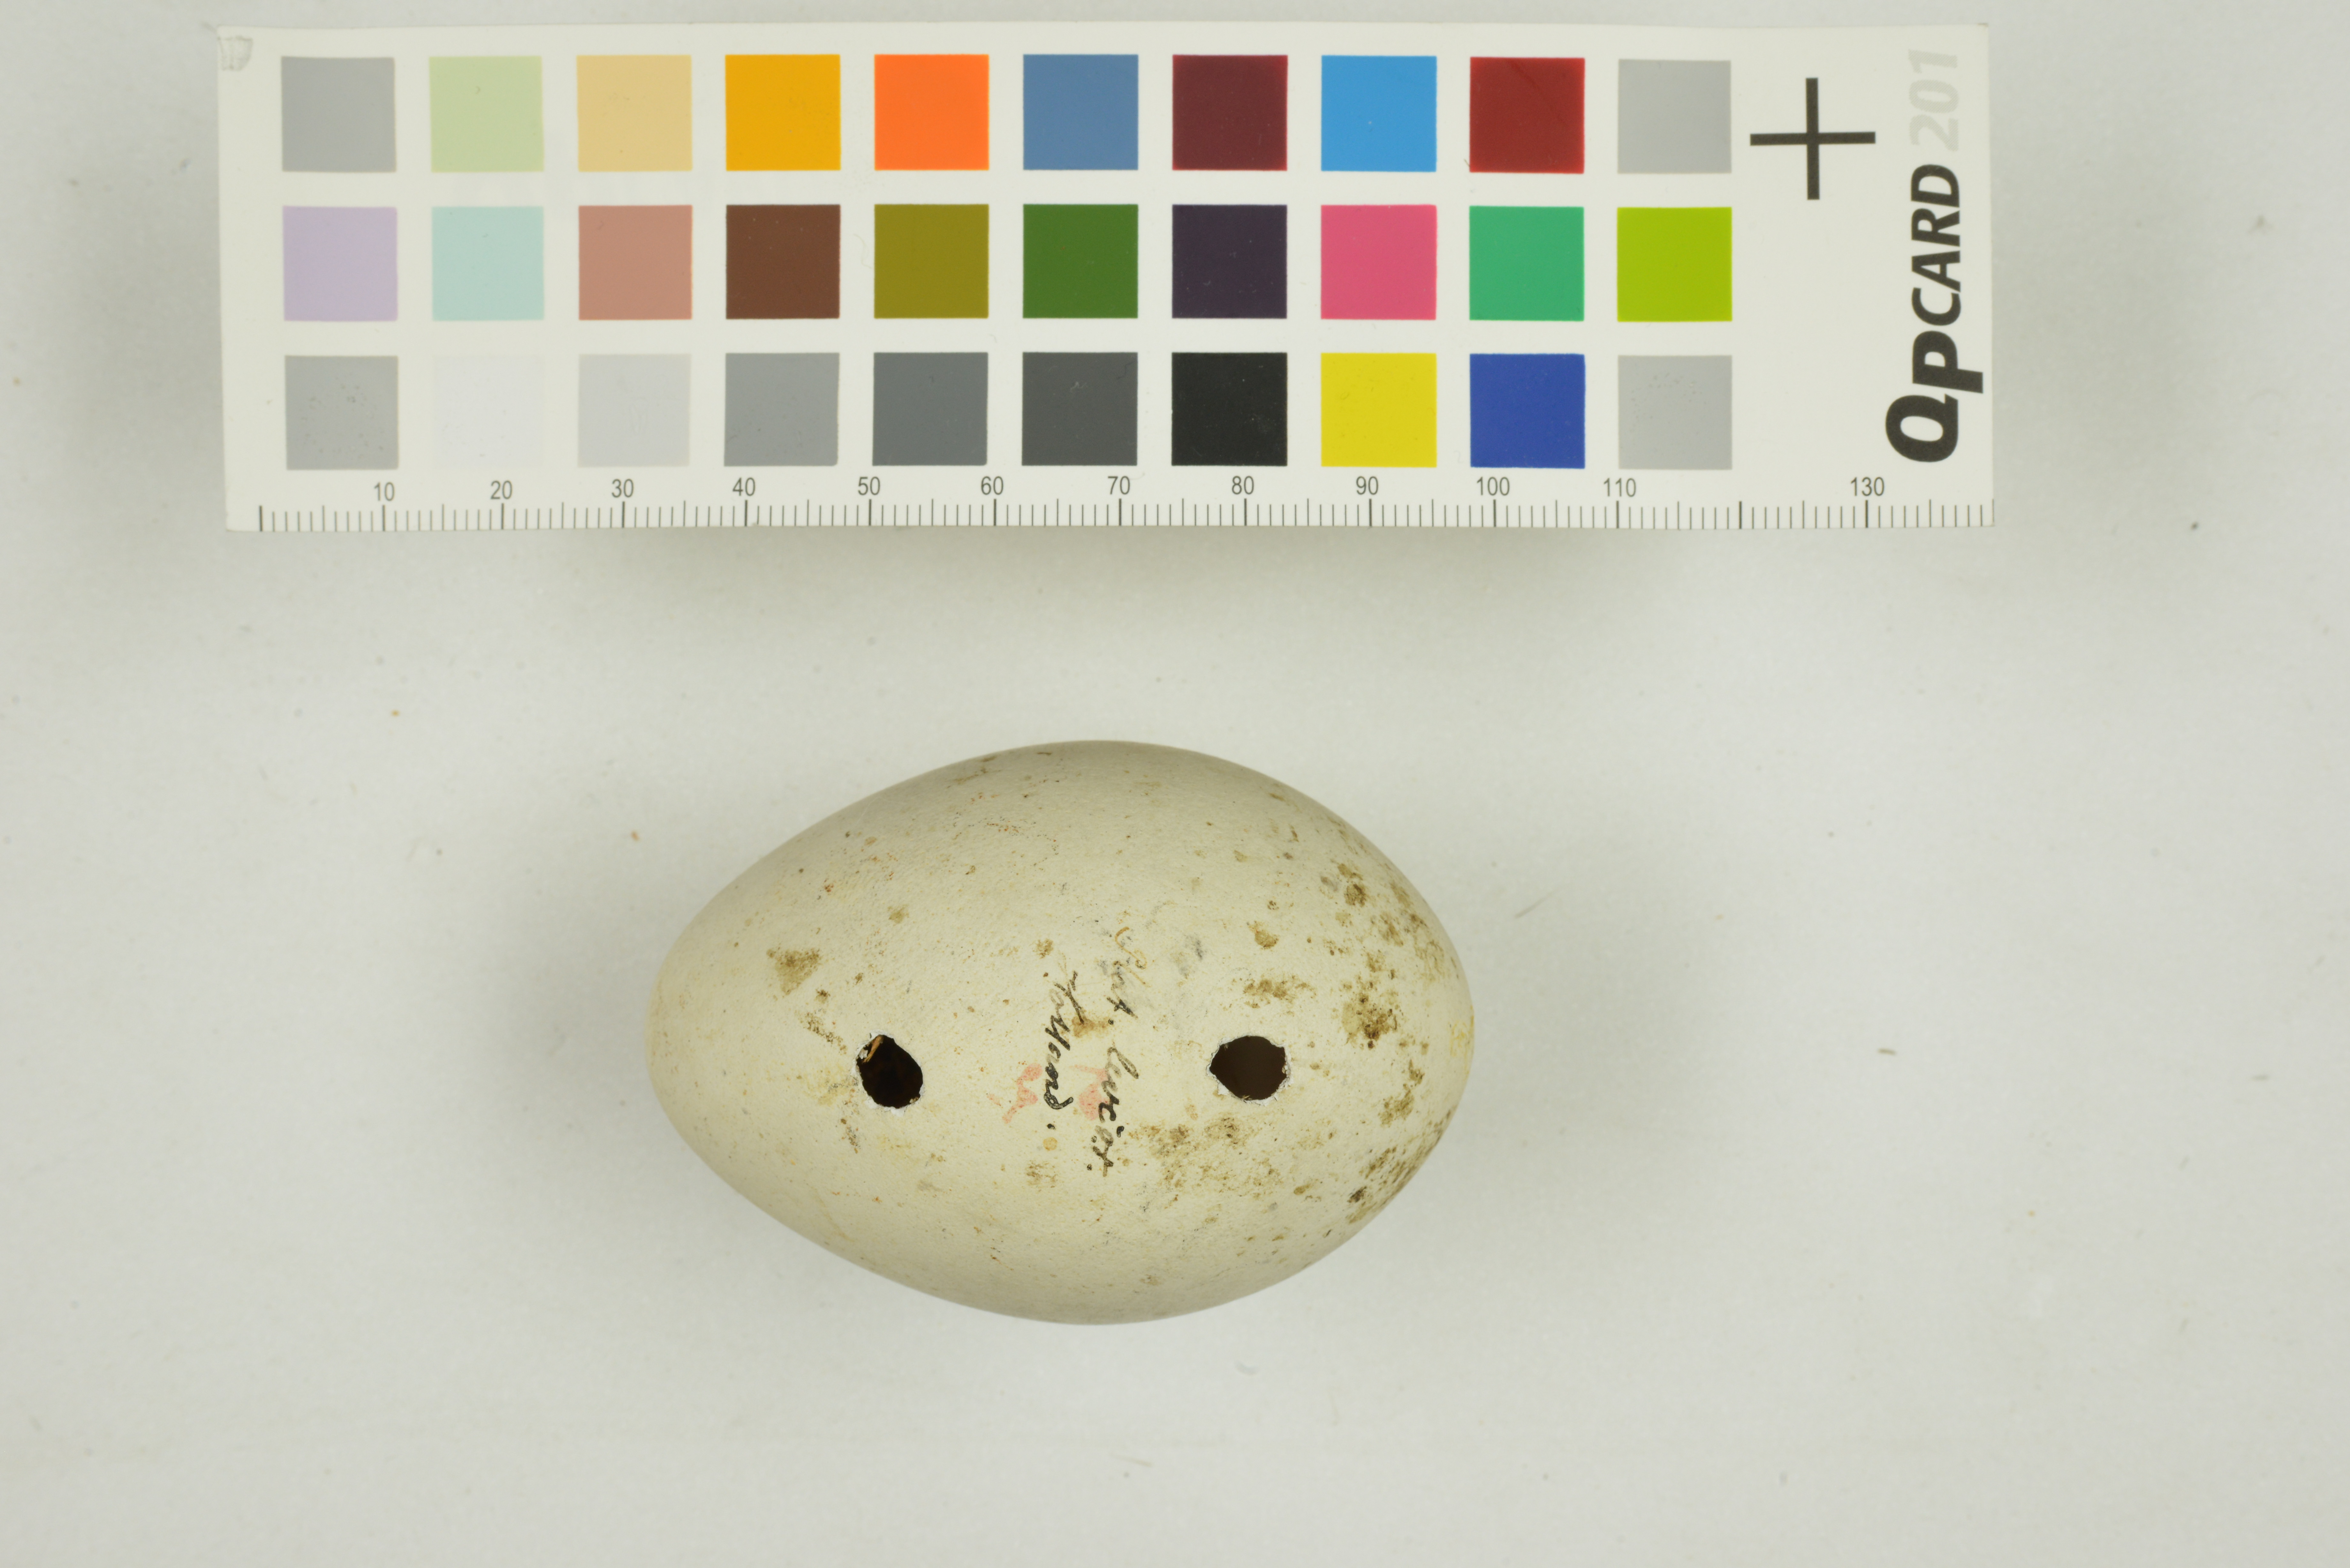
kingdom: Animalia
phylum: Chordata
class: Aves
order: Pelecaniformes
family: Threskiornithidae
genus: Platalea
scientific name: Platalea leucorodia
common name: Eurasian spoonbill
